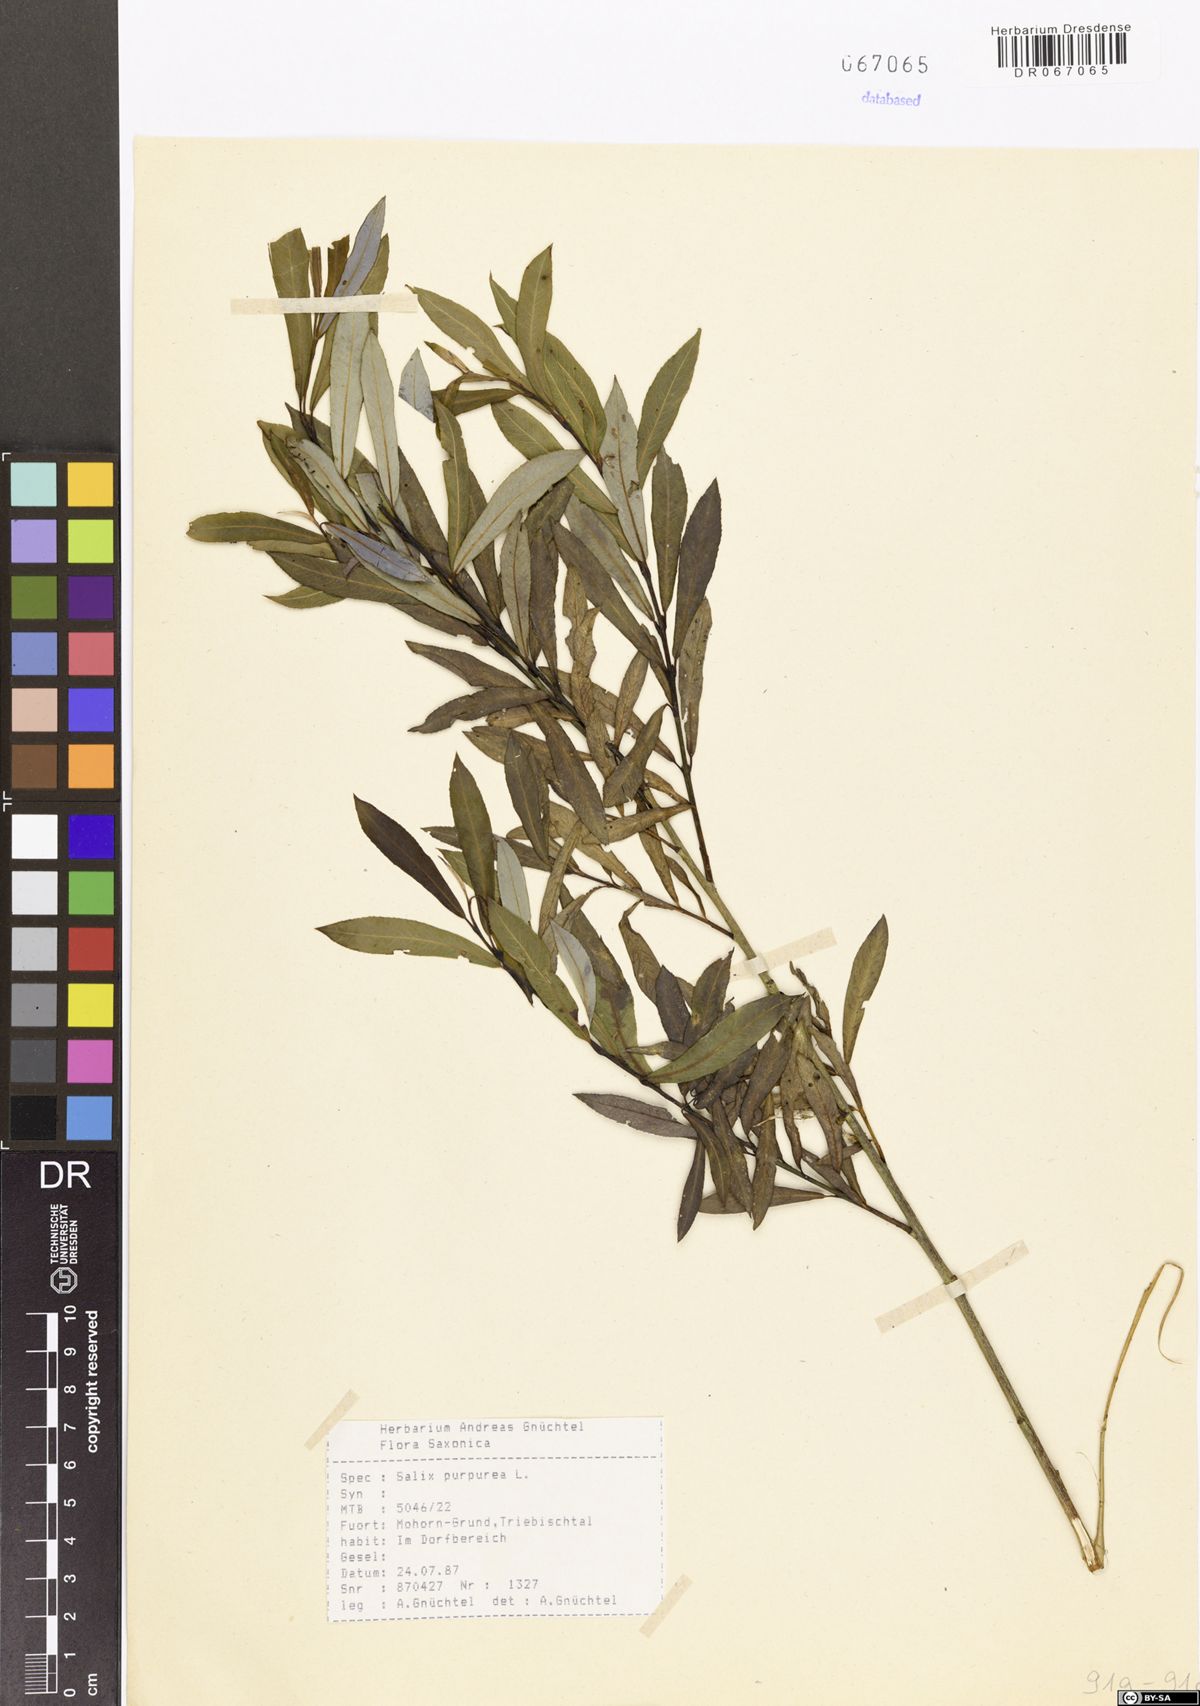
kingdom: Plantae
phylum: Tracheophyta
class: Magnoliopsida
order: Malpighiales
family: Salicaceae
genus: Salix
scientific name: Salix purpurea
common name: Purple willow
